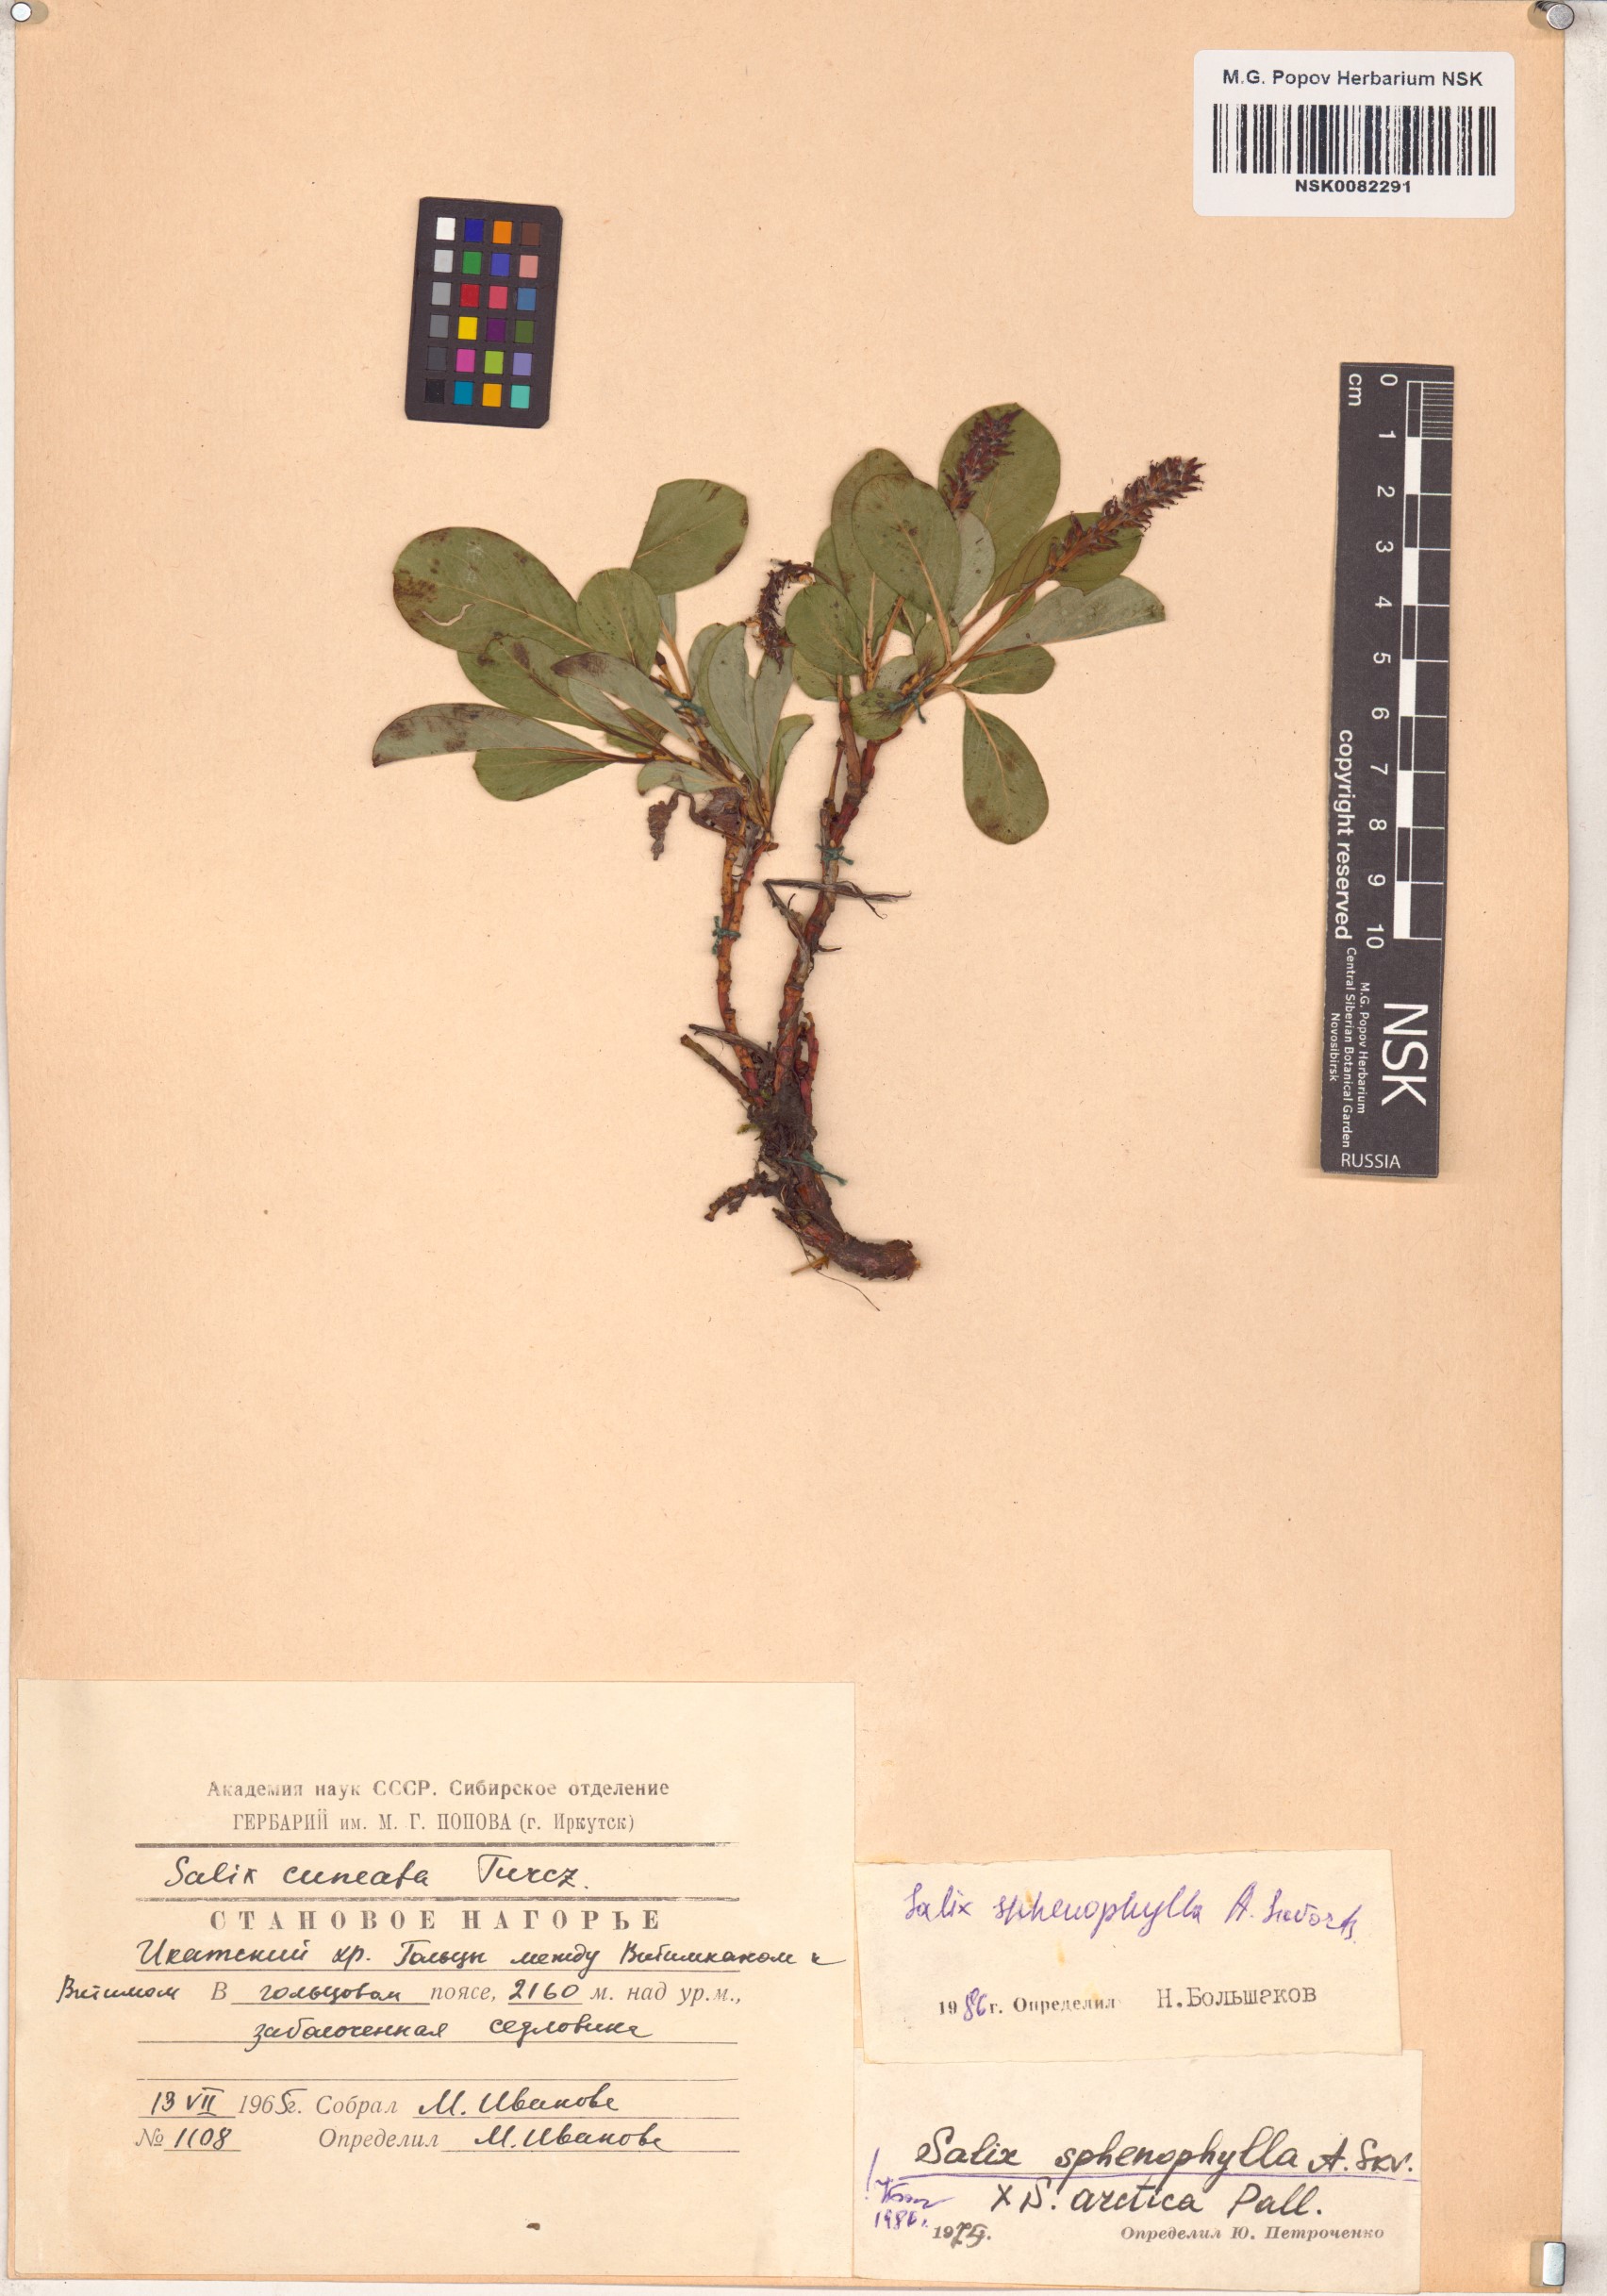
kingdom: Plantae
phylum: Tracheophyta
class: Magnoliopsida
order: Malpighiales
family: Salicaceae
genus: Salix
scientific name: Salix sphenophylla
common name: Wedge-leaved willow
